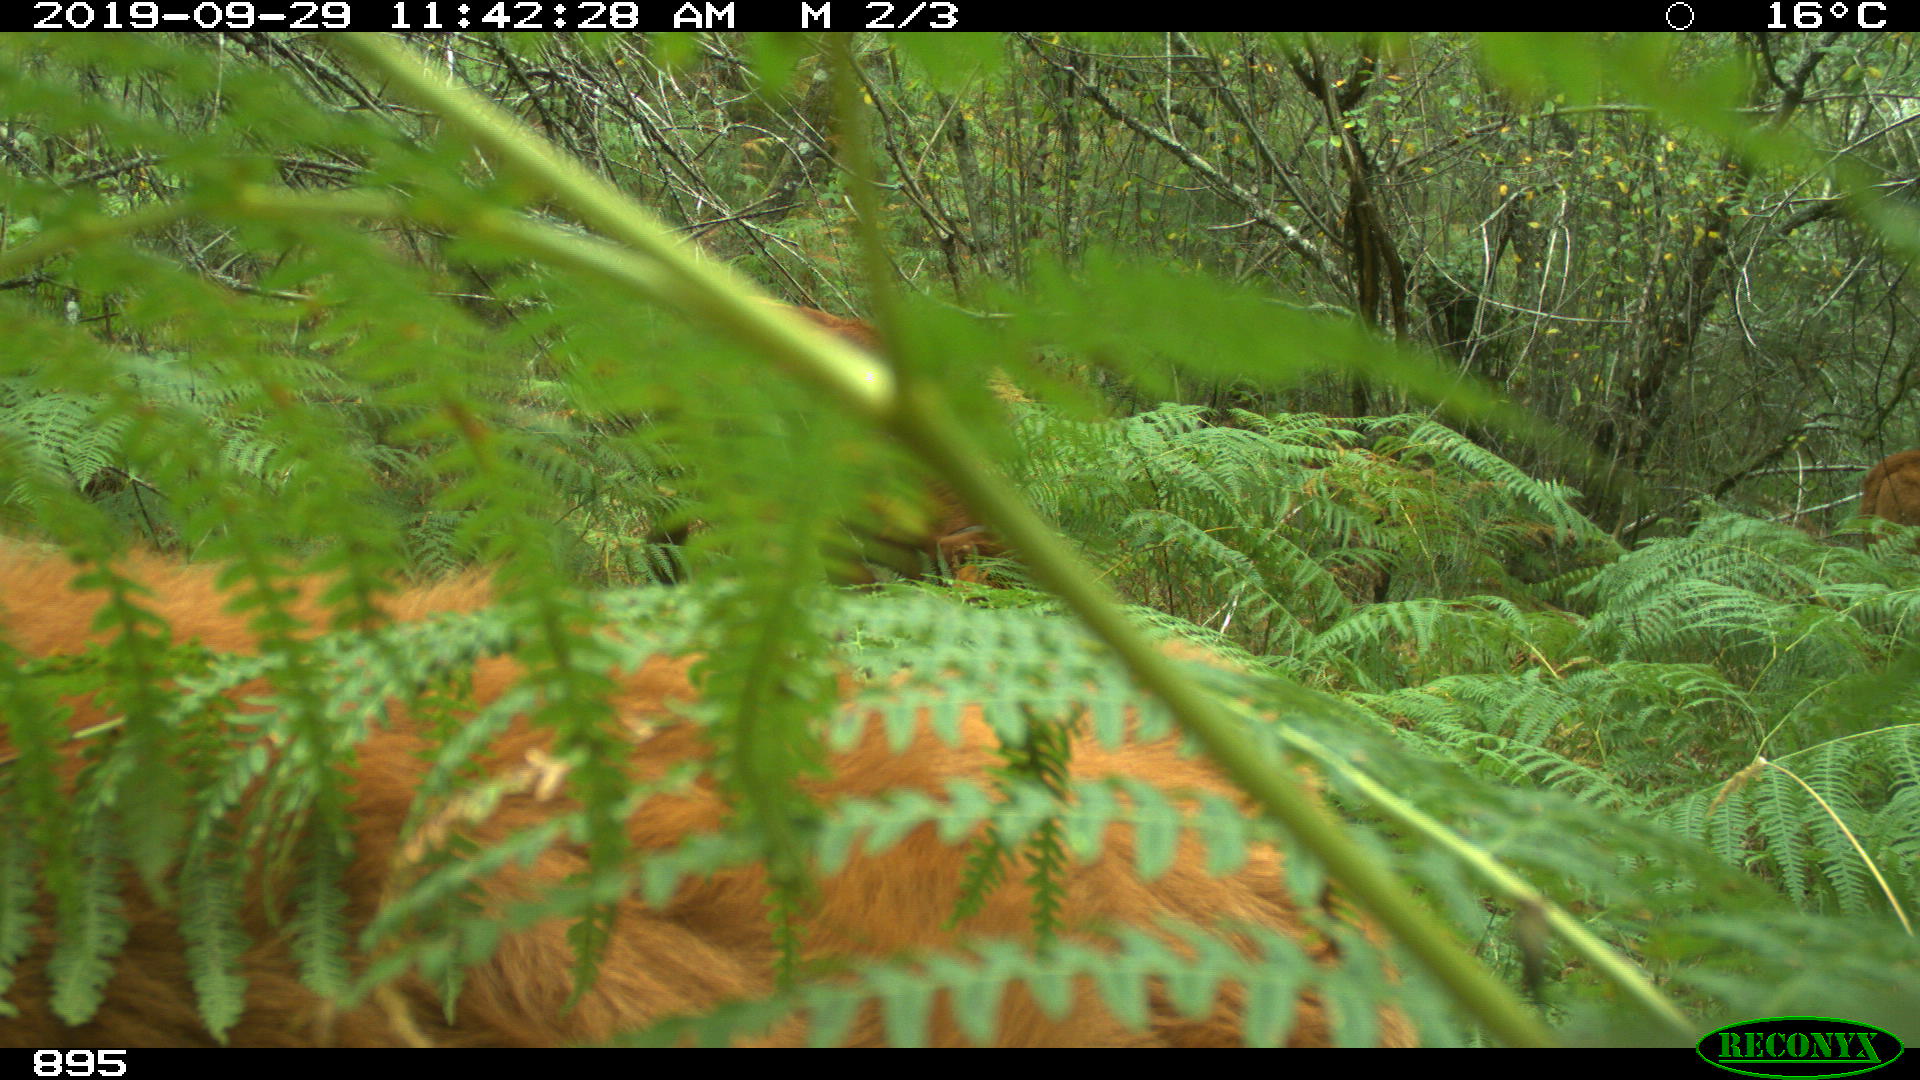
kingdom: Animalia
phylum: Chordata
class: Mammalia
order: Artiodactyla
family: Bovidae
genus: Bos
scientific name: Bos taurus
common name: Domesticated cattle
